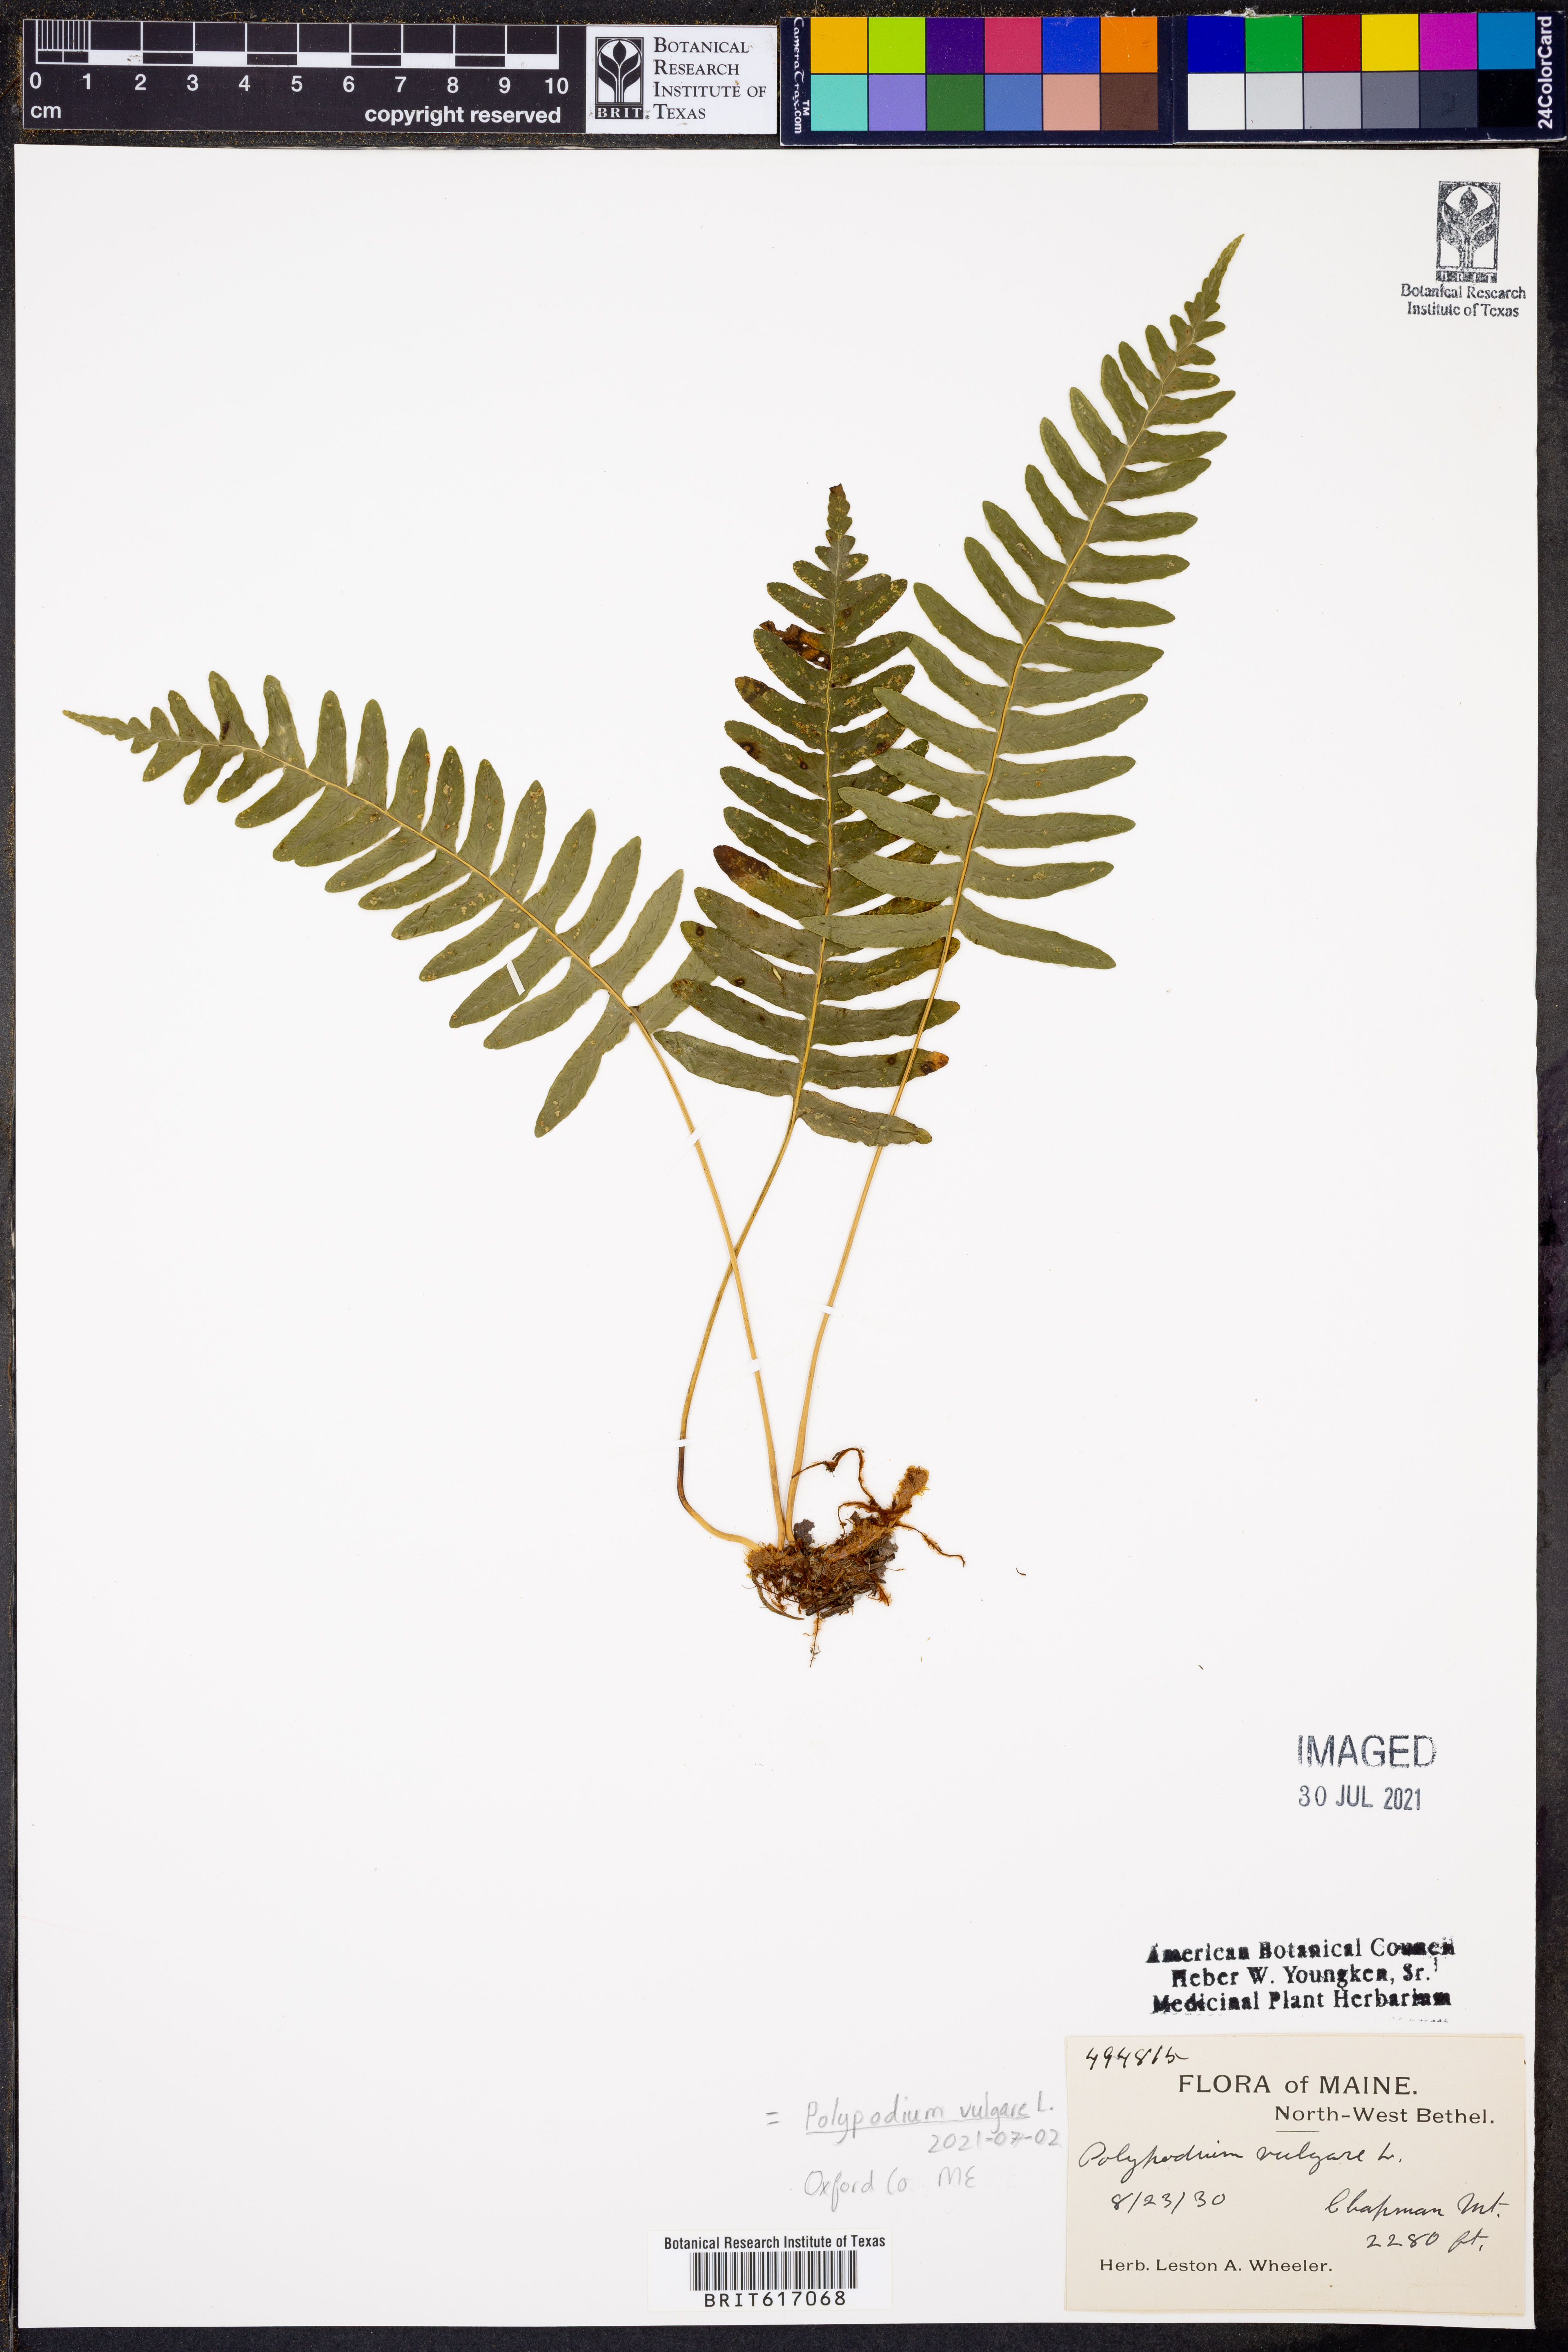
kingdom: Plantae
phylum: Tracheophyta
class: Polypodiopsida
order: Polypodiales
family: Polypodiaceae
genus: Polypodium
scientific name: Polypodium vulgare
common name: Common polypody
